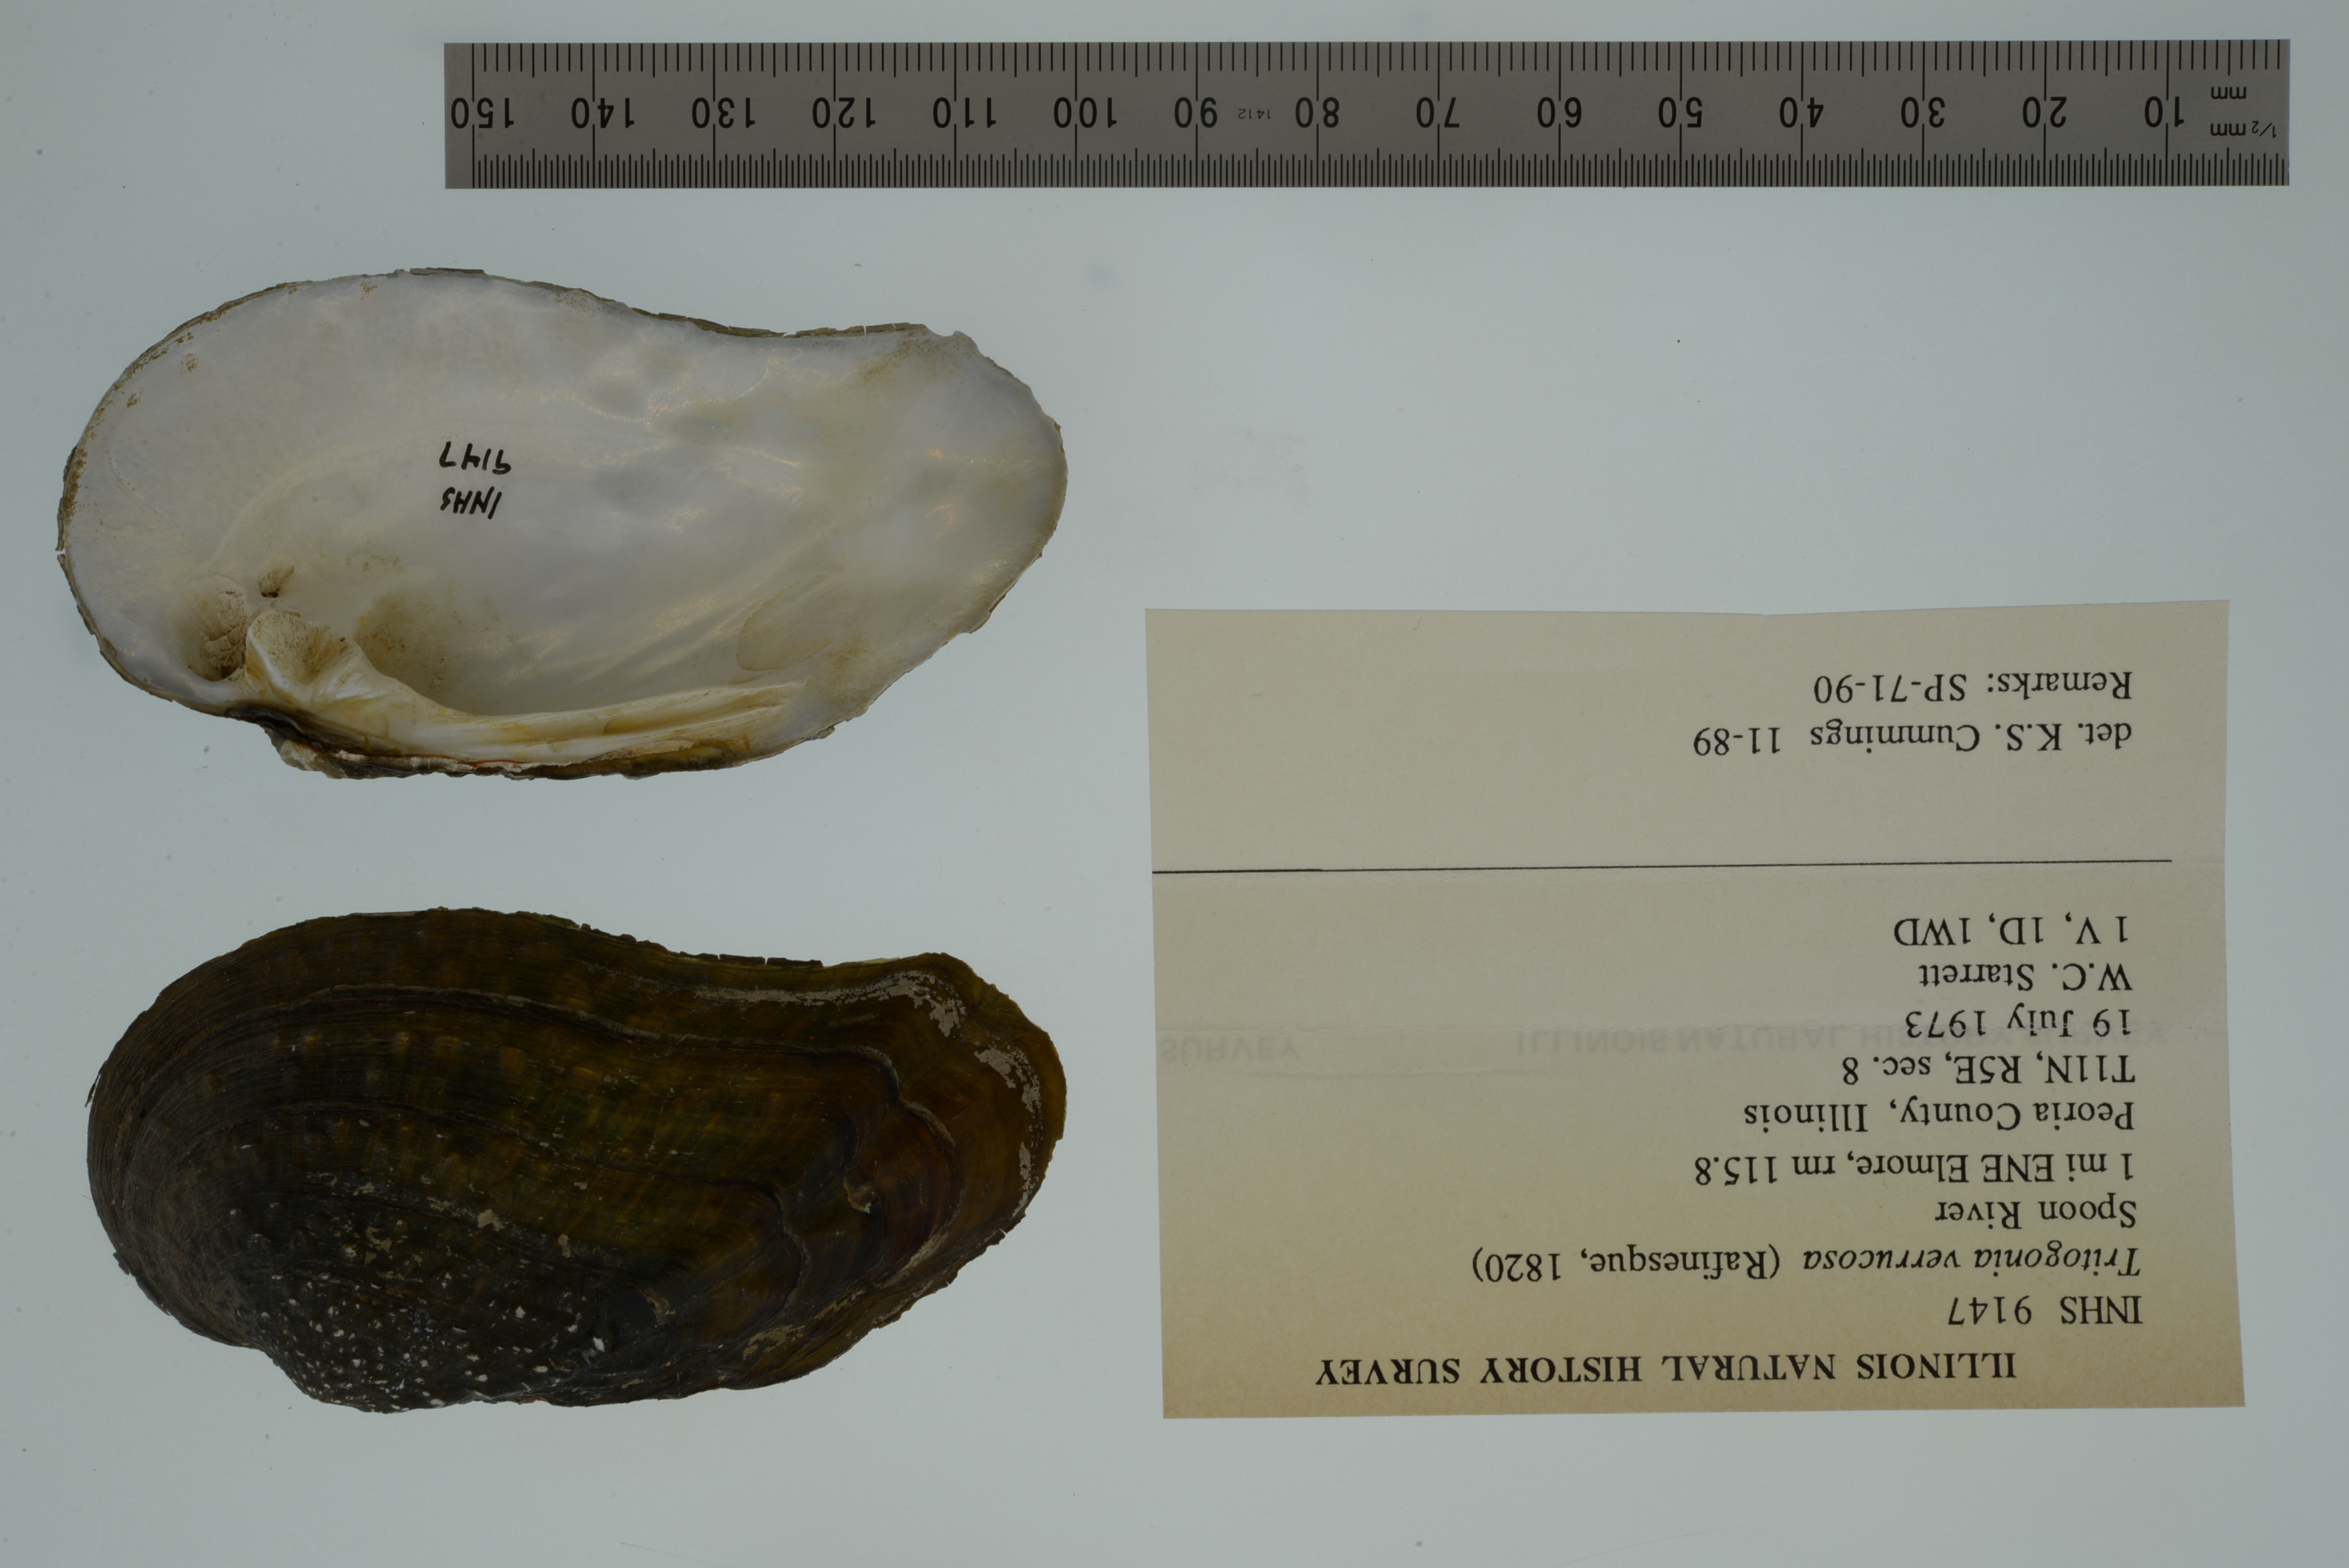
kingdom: Animalia
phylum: Mollusca
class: Bivalvia
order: Unionida
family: Unionidae
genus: Tritogonia
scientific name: Tritogonia verrucosa
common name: Pistolgrip
